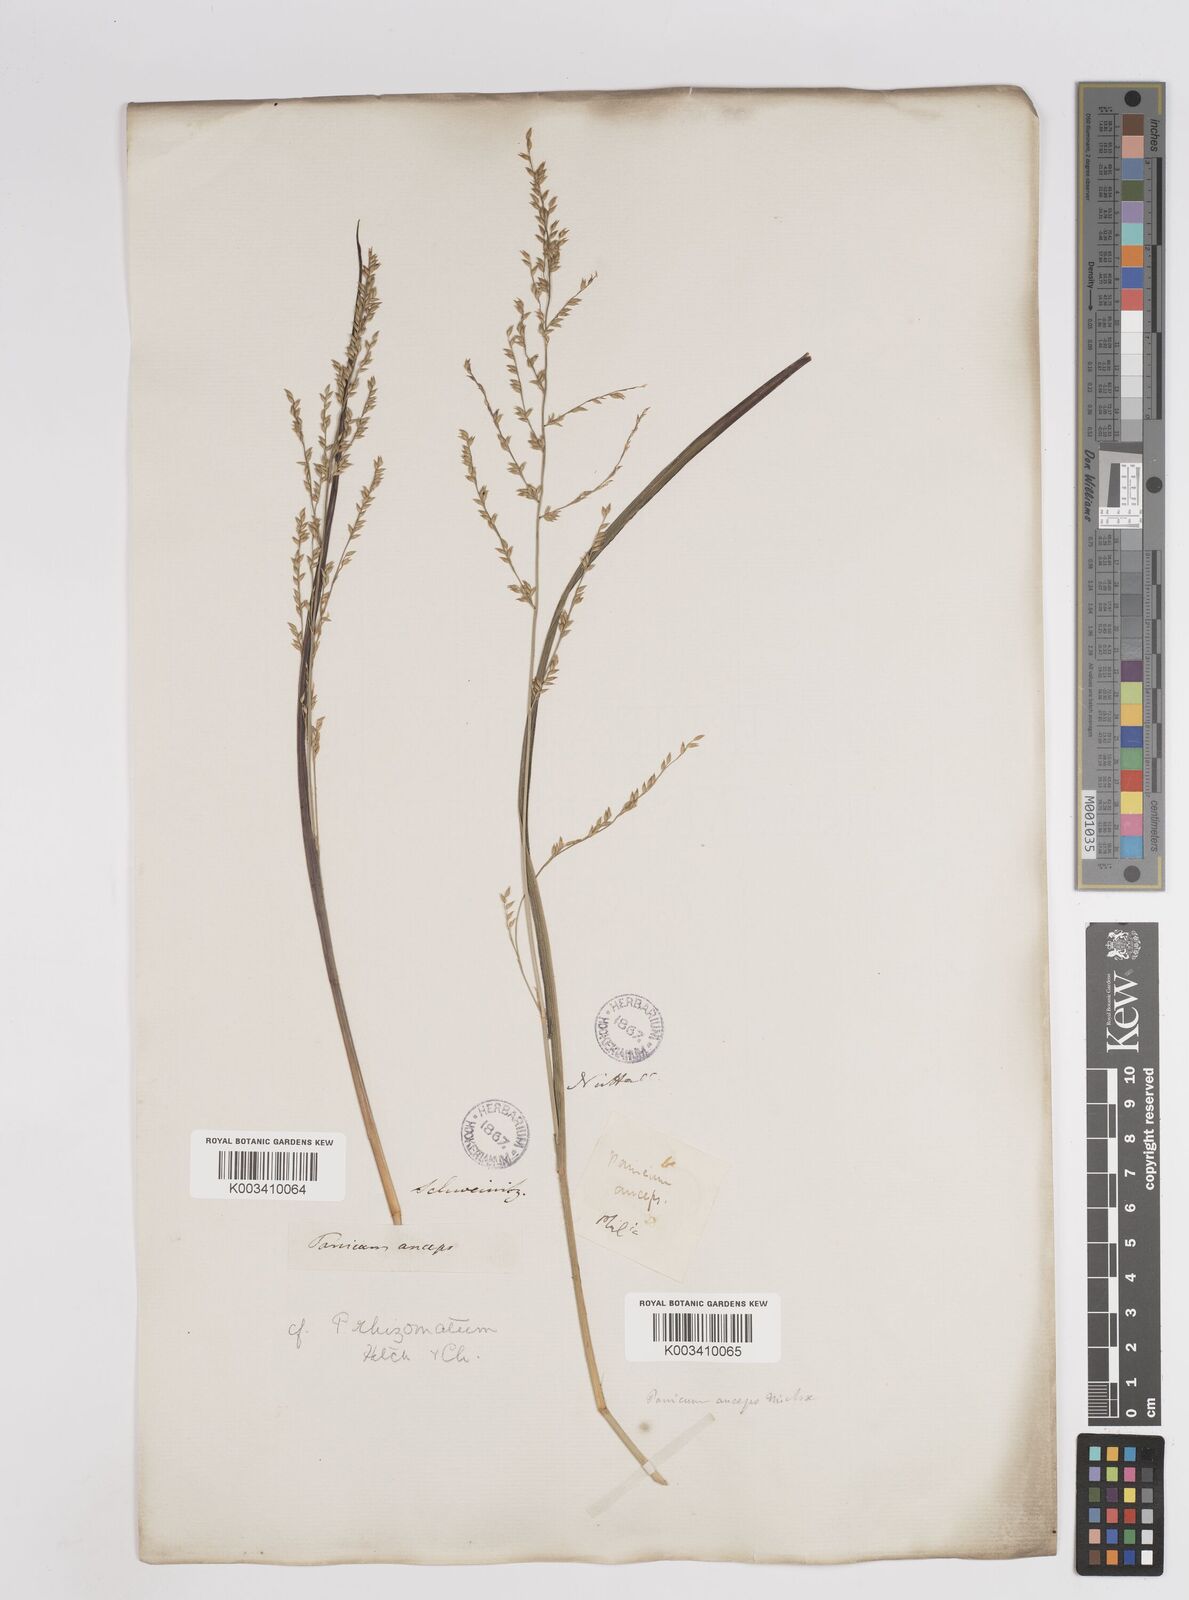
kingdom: Plantae
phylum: Tracheophyta
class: Liliopsida
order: Poales
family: Poaceae
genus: Coleataenia
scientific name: Coleataenia anceps
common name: Beaked panic grass
